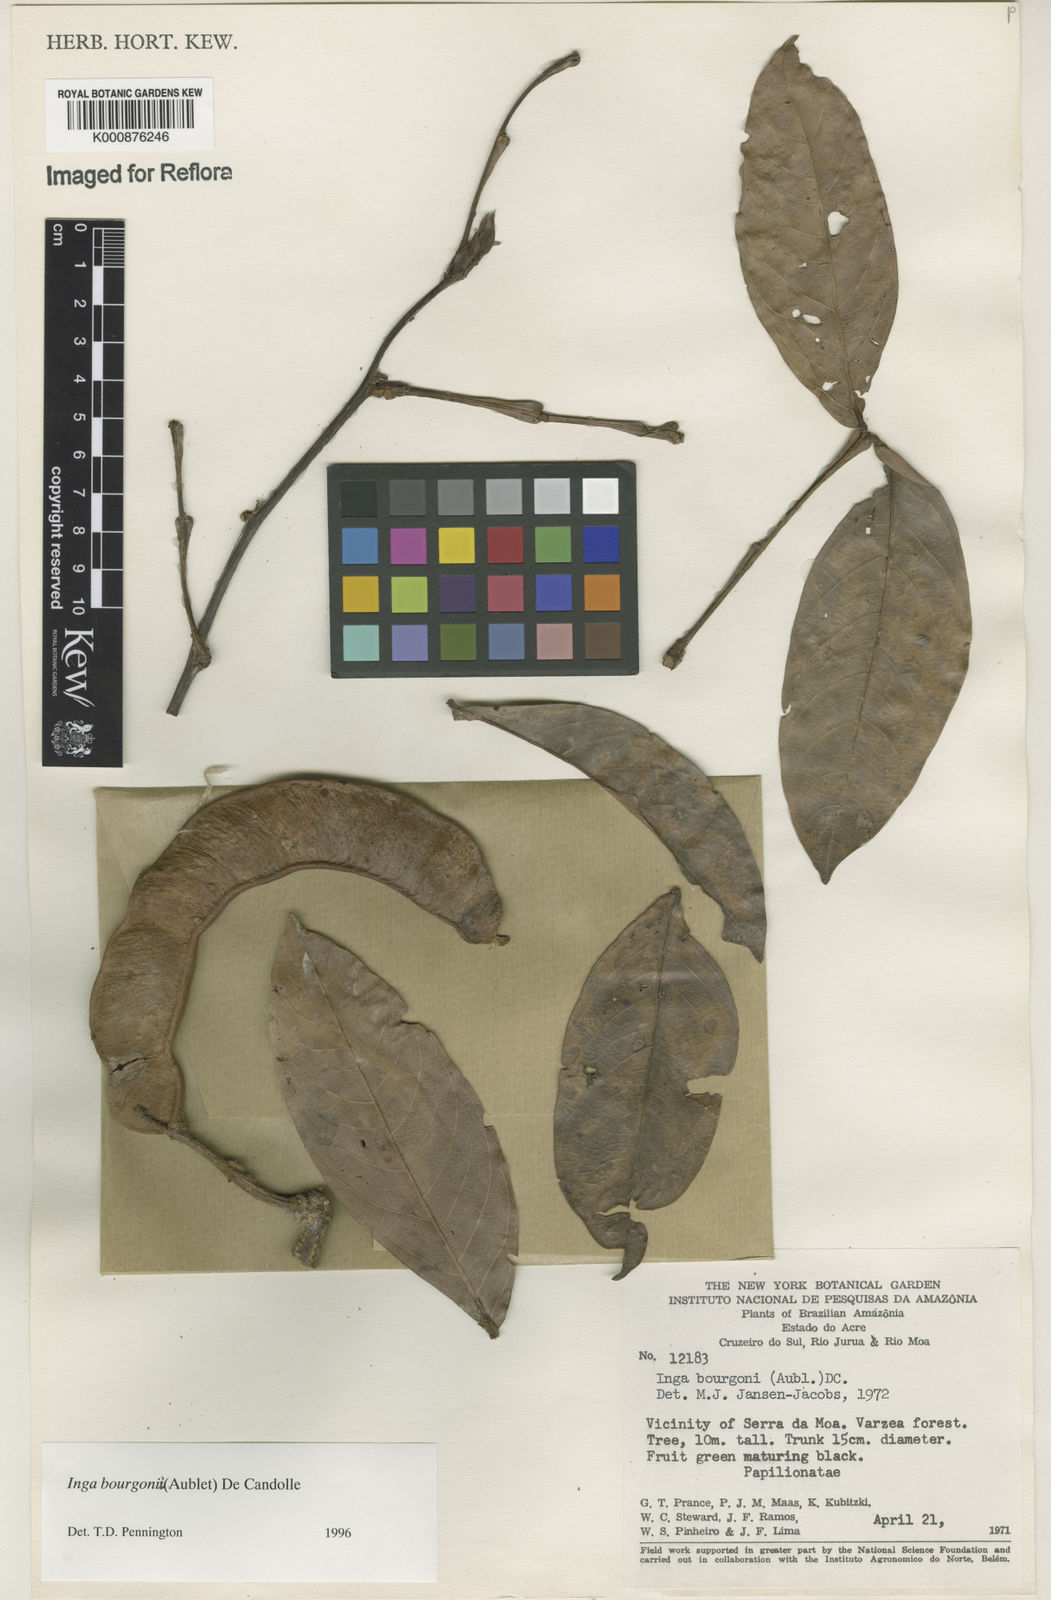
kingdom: Plantae
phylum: Tracheophyta
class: Magnoliopsida
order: Fabales
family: Fabaceae
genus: Inga
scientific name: Inga bourgoni
